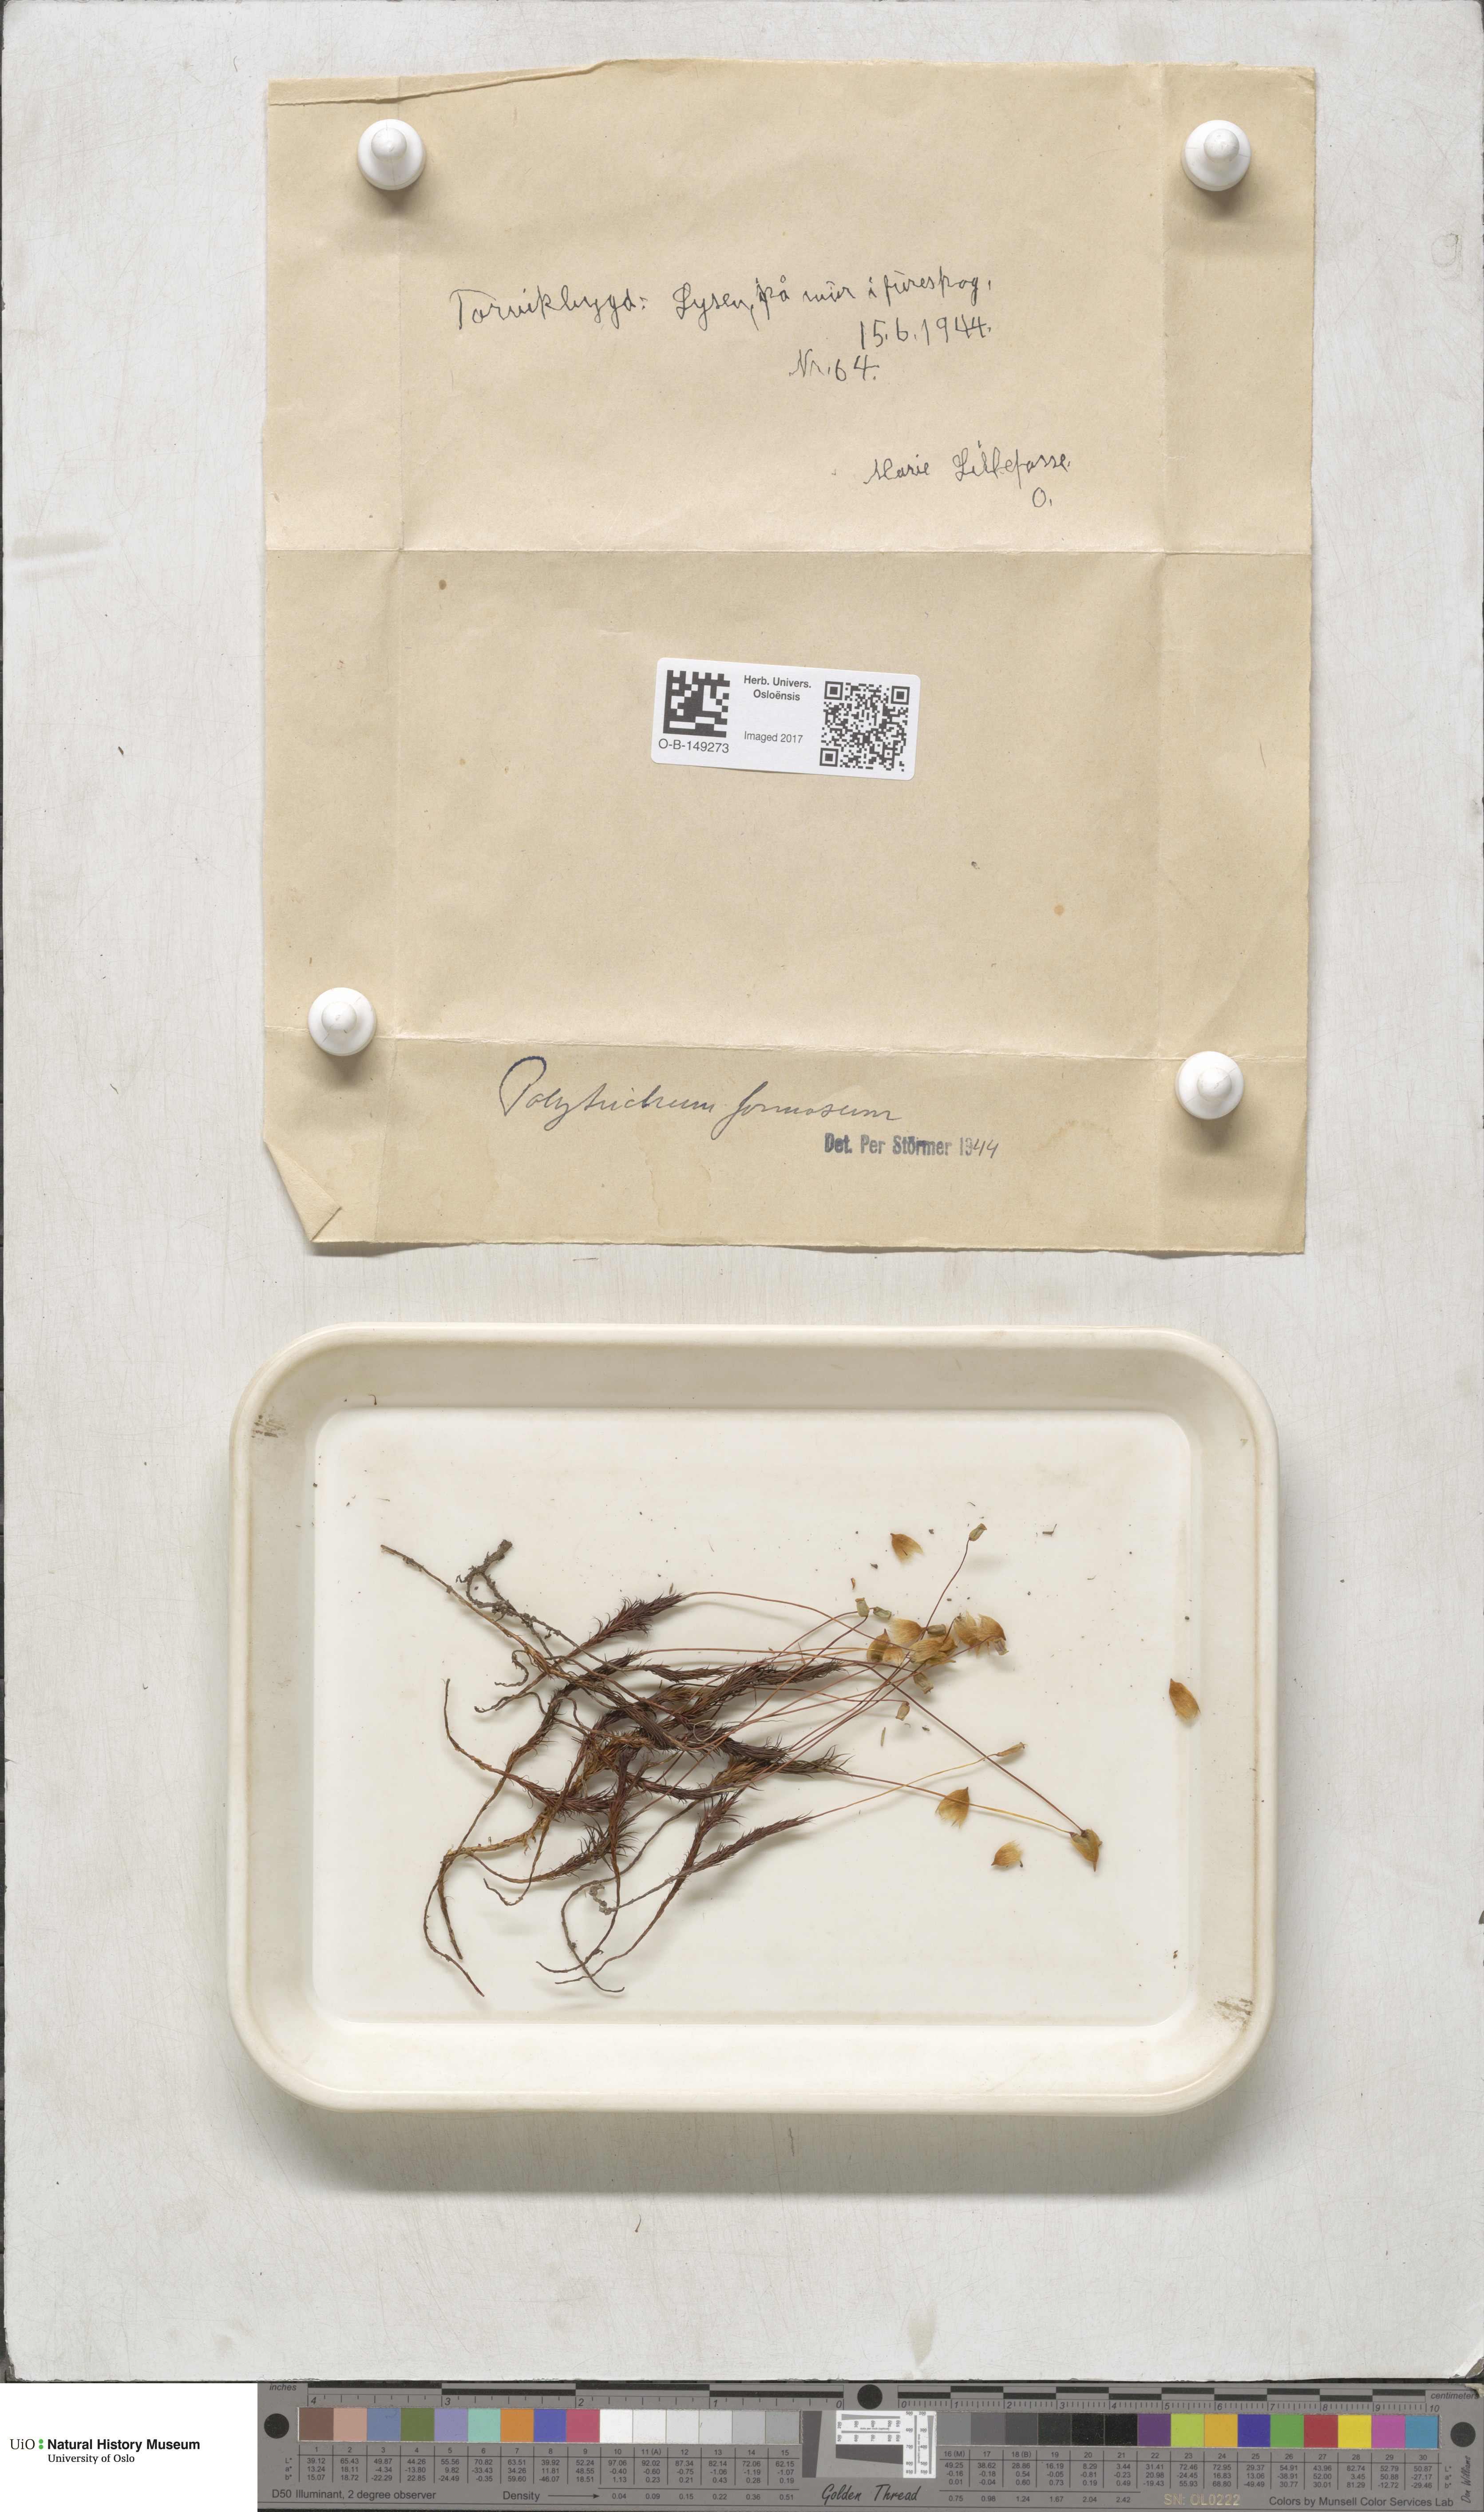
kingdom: Plantae
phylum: Bryophyta
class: Polytrichopsida
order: Polytrichales
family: Polytrichaceae
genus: Polytrichum
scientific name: Polytrichum formosum
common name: Bank haircap moss
